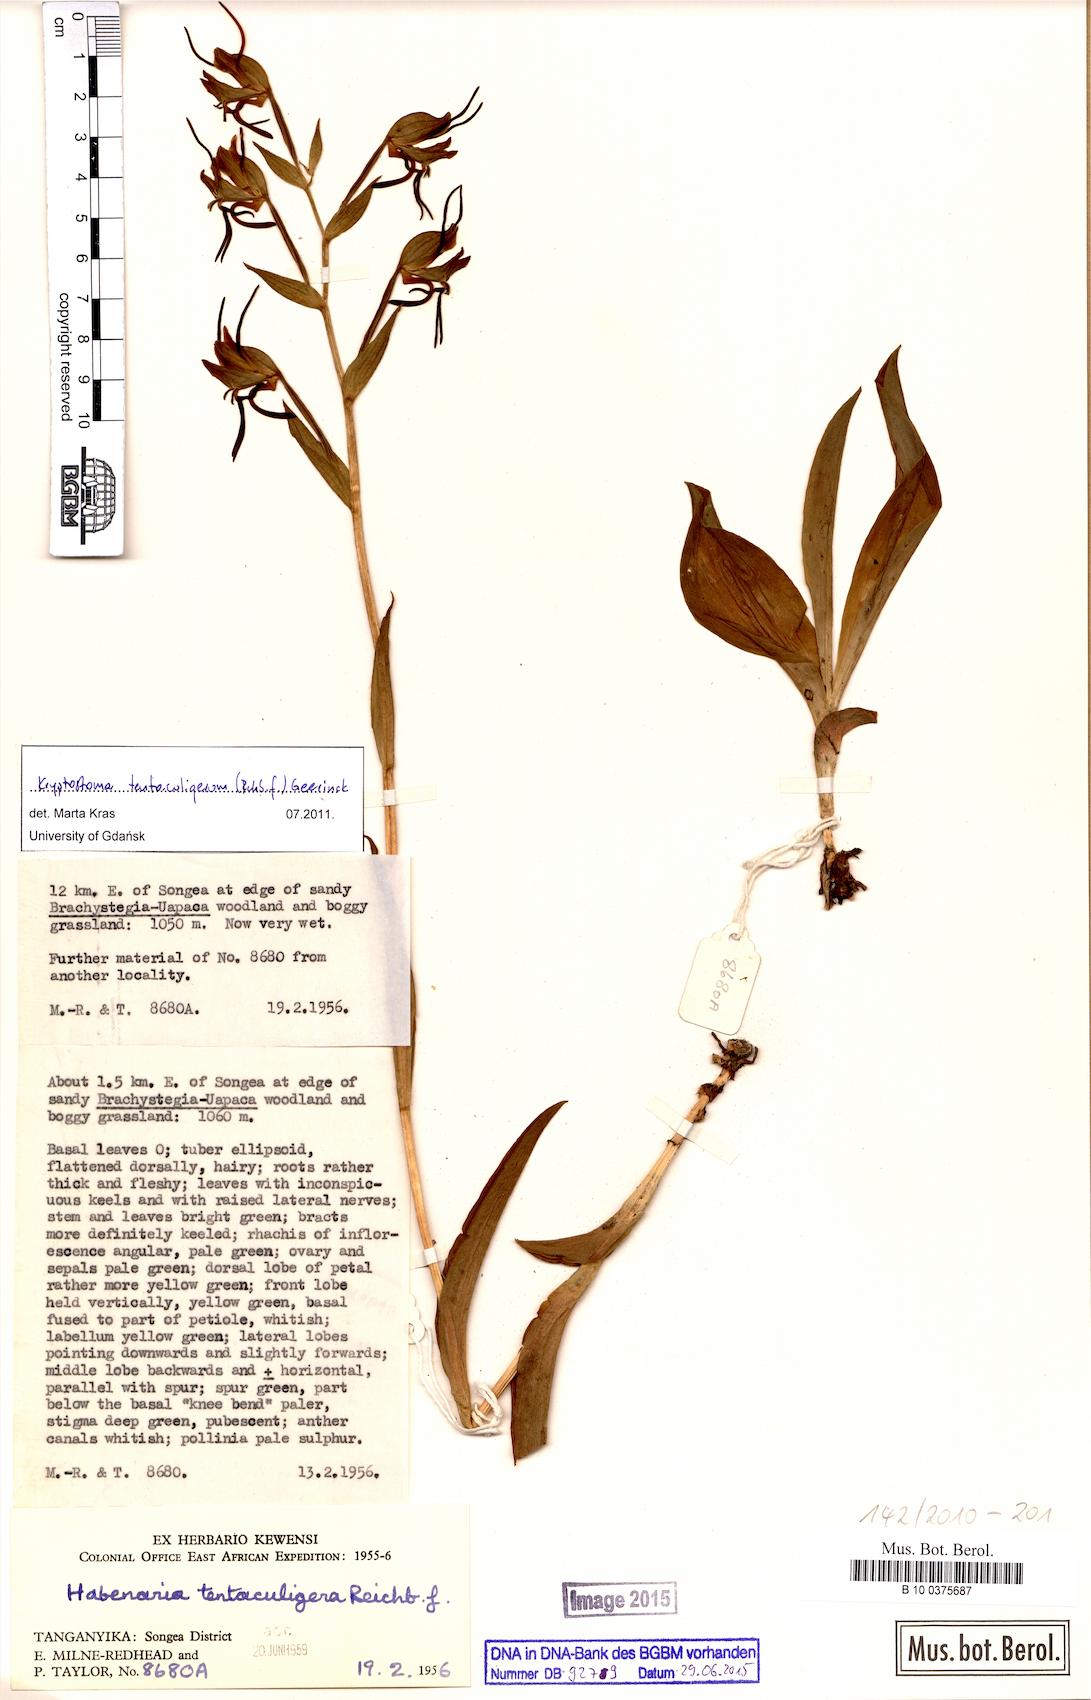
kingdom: Plantae
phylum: Tracheophyta
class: Liliopsida
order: Asparagales
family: Orchidaceae
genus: Habenaria
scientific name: Habenaria tentaculigera
